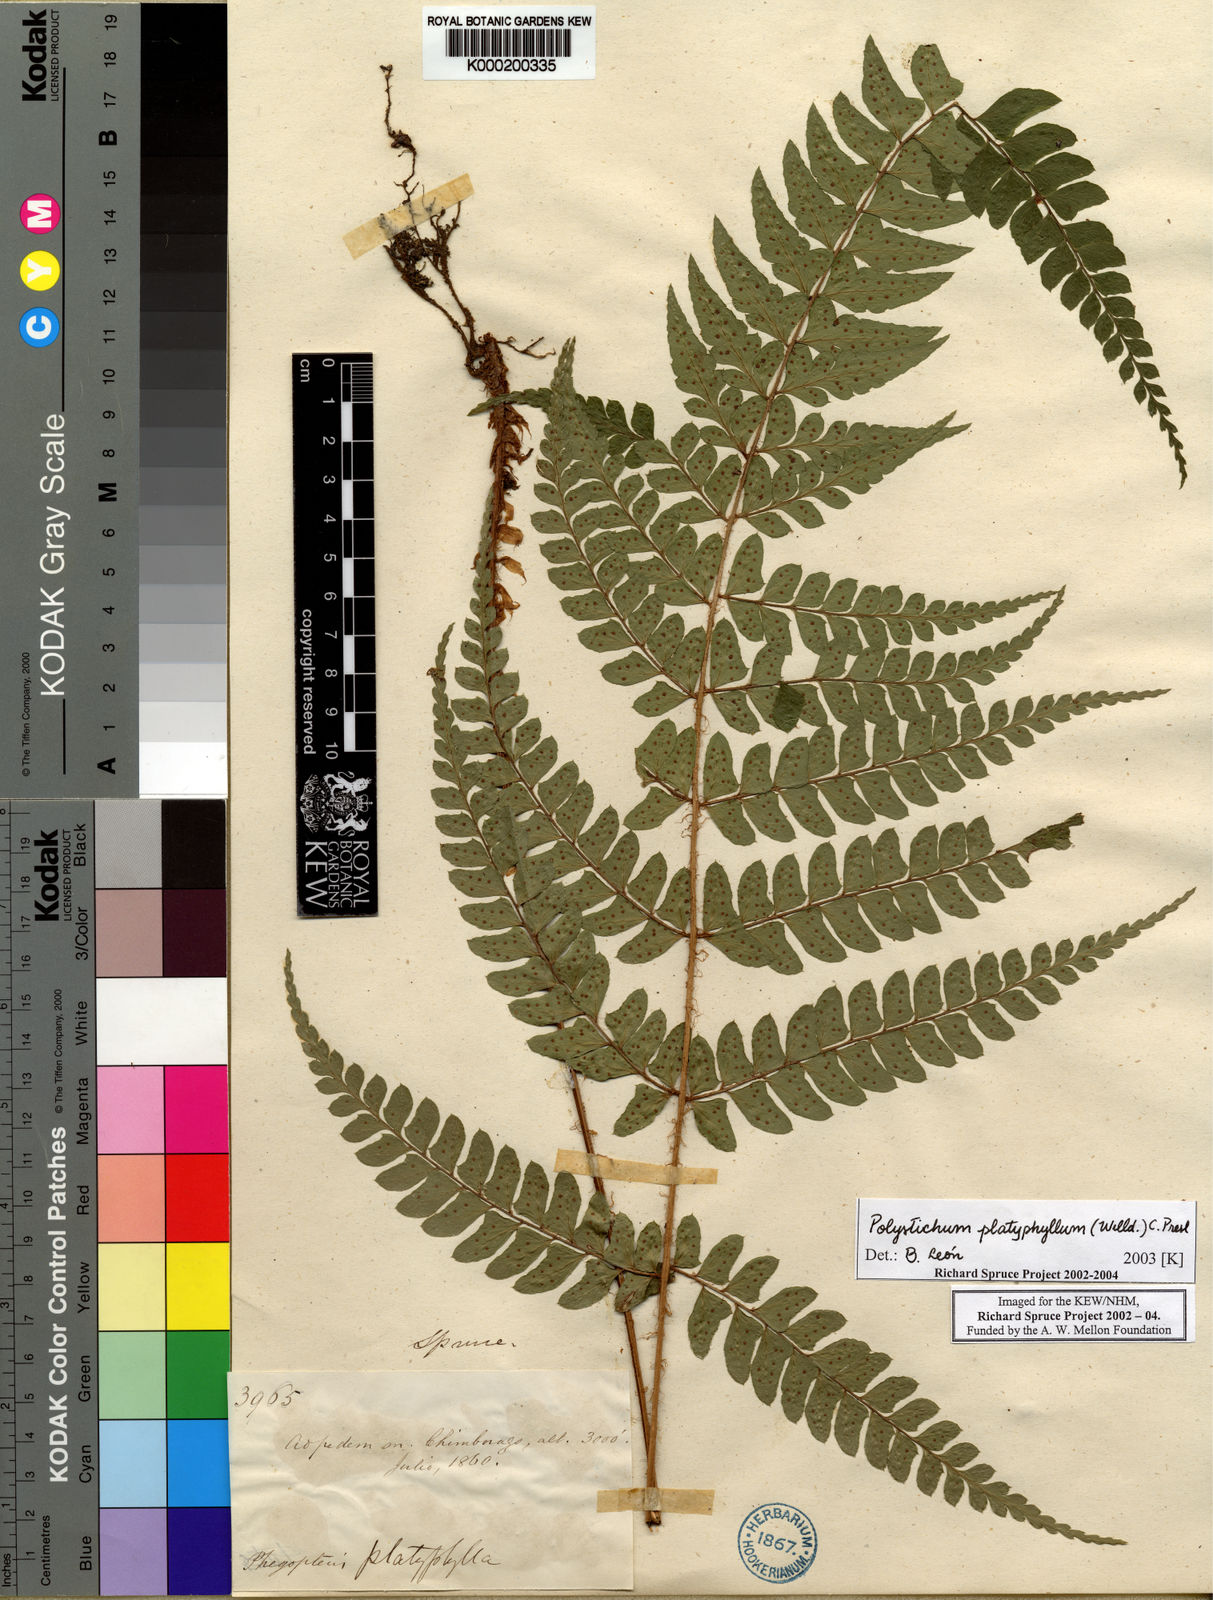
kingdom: Plantae
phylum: Tracheophyta
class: Polypodiopsida
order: Polypodiales
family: Dryopteridaceae
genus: Polystichum
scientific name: Polystichum platyphyllum
